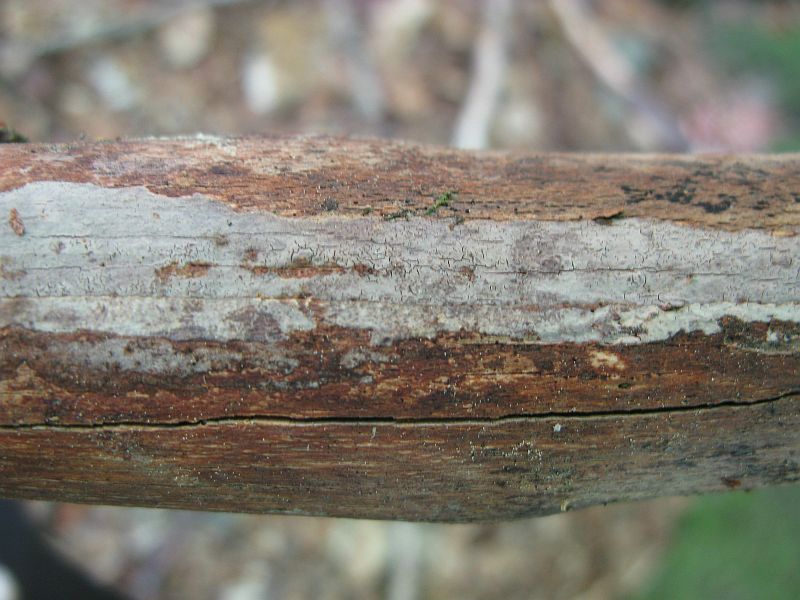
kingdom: Fungi
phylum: Basidiomycota
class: Agaricomycetes
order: Russulales
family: Peniophoraceae
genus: Peniophora
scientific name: Peniophora cinerea
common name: grå voksskind
